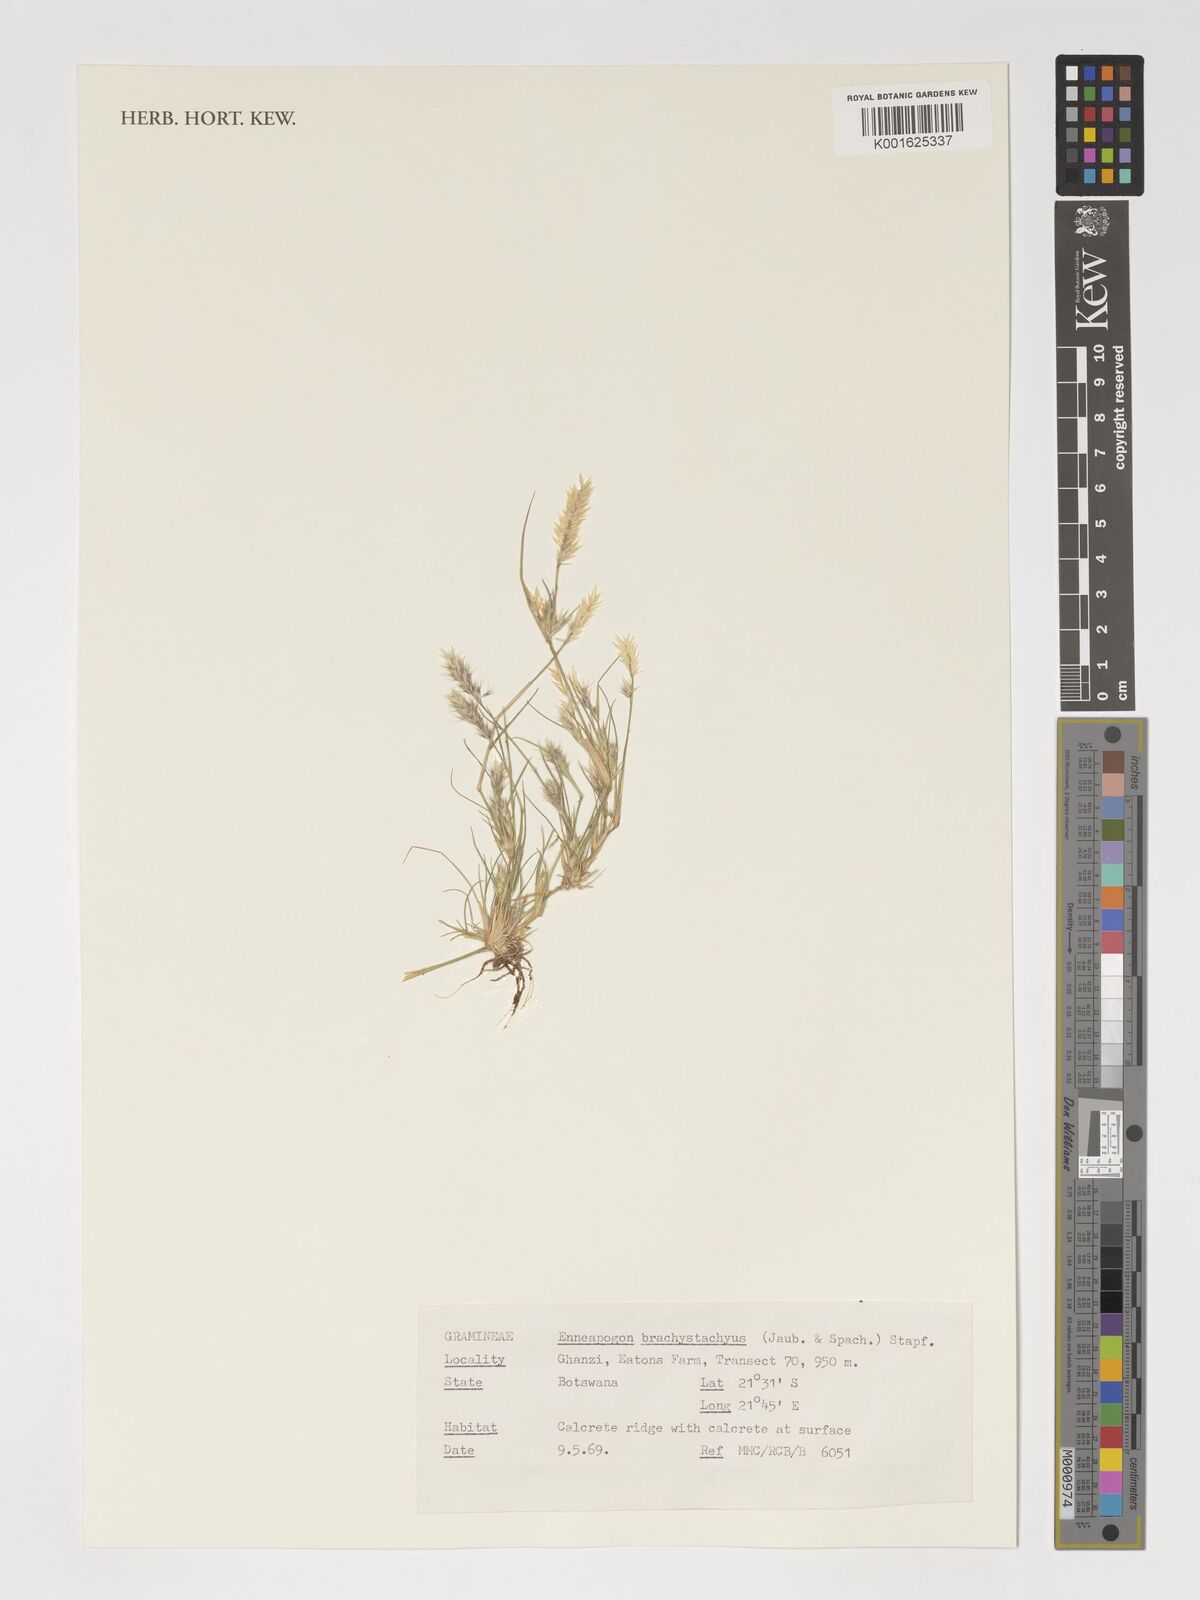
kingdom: Plantae
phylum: Tracheophyta
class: Liliopsida
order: Poales
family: Poaceae
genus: Enneapogon
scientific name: Enneapogon desvauxii
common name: Feather pappus grass
